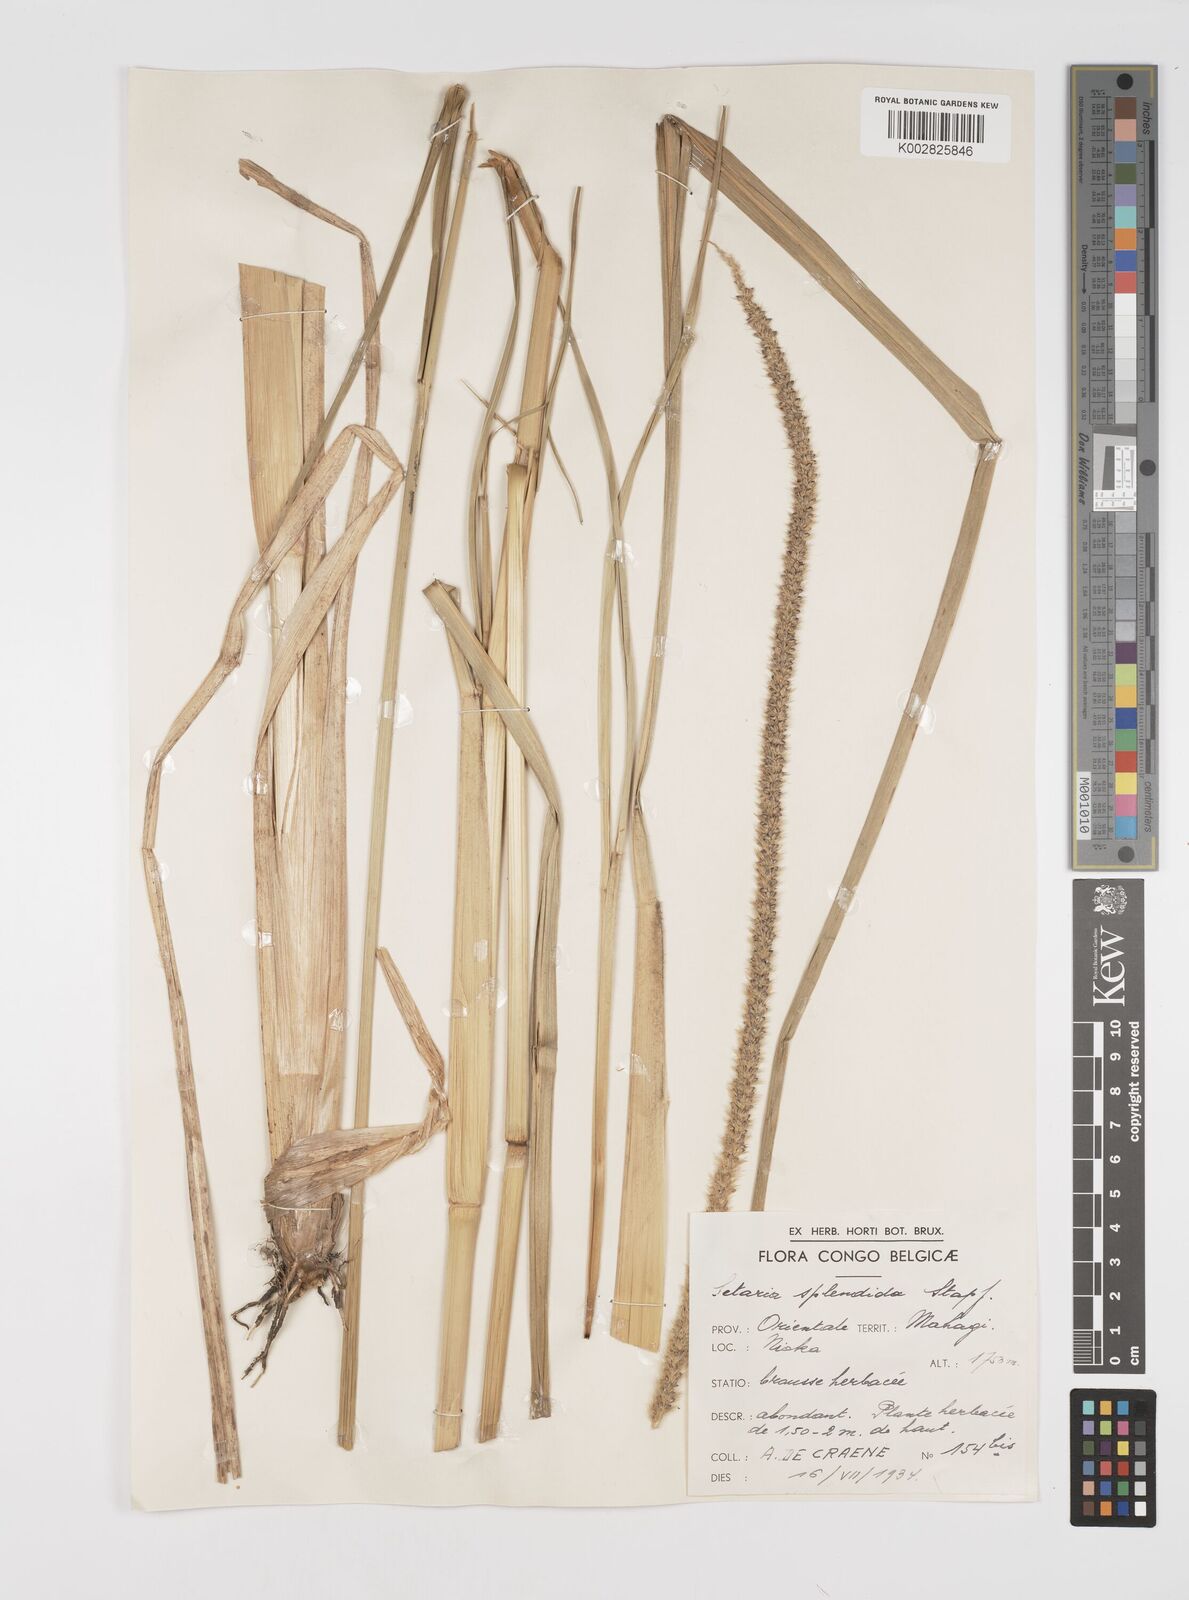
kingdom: Plantae
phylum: Tracheophyta
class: Liliopsida
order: Poales
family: Poaceae
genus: Setaria
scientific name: Setaria sphacelata
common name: African bristlegrass
